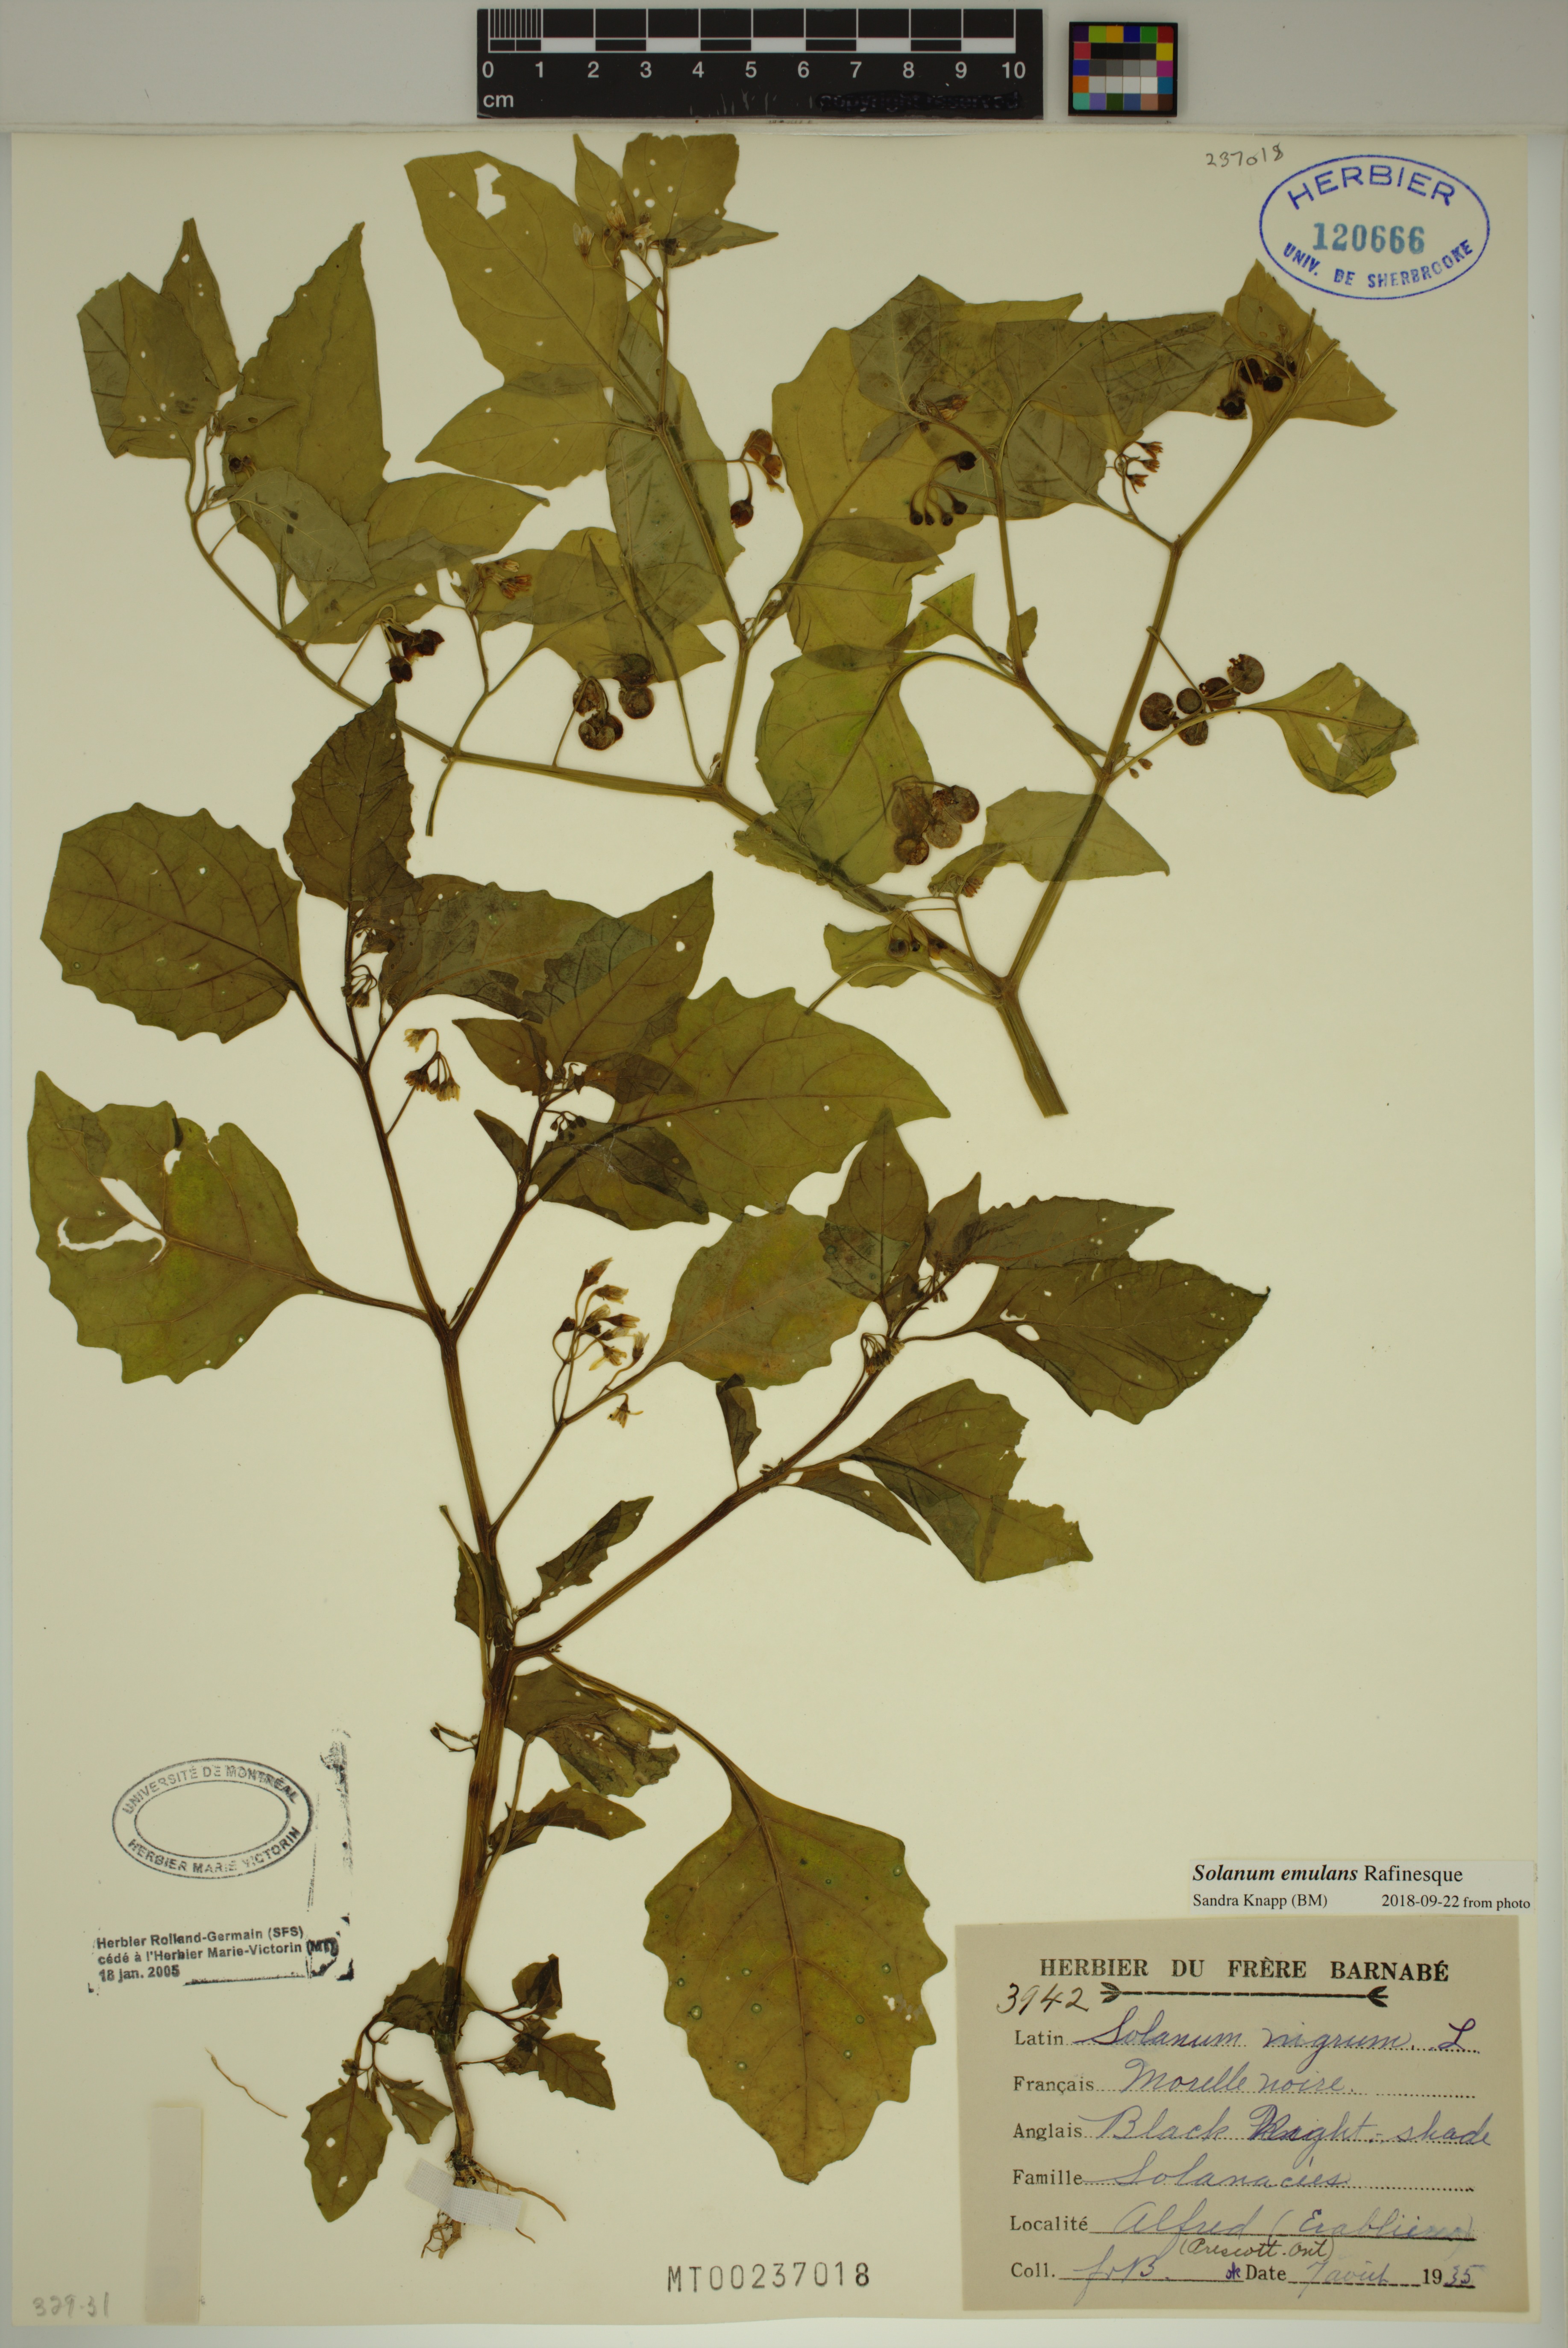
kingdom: Plantae
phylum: Tracheophyta
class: Magnoliopsida
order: Solanales
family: Solanaceae
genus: Solanum
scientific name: Solanum emulans
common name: Eastern black nightshade
